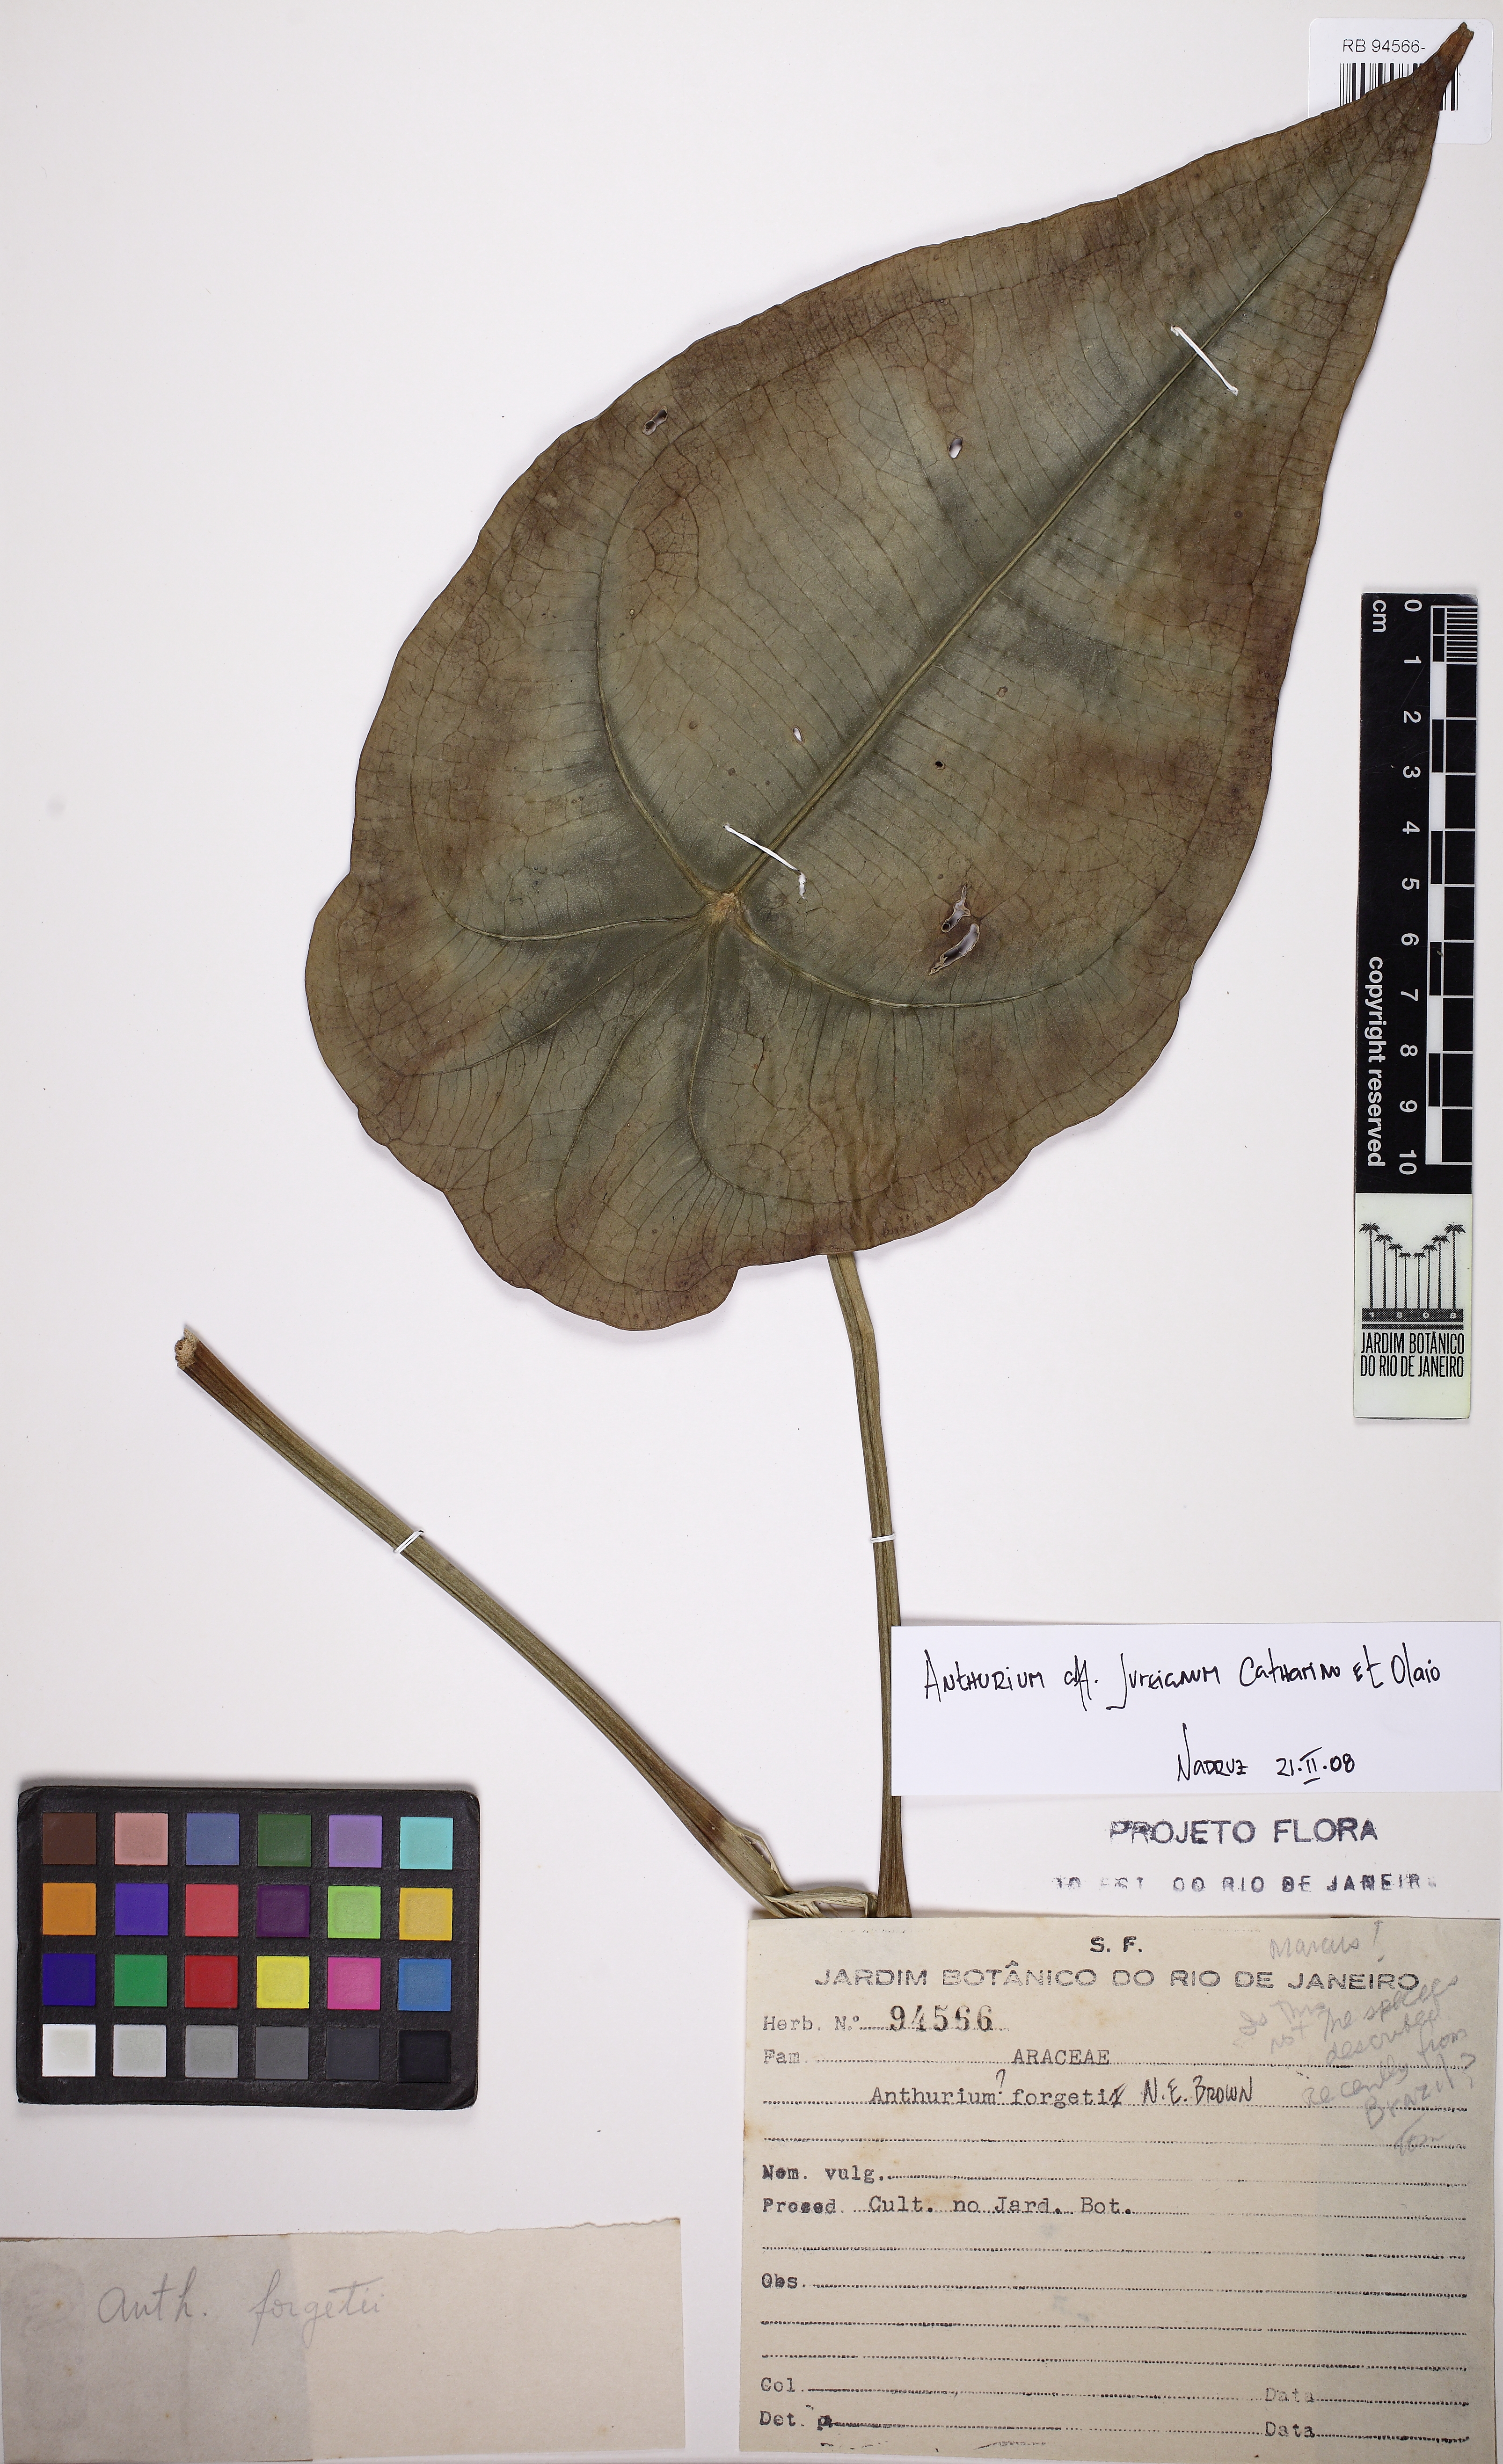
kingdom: Plantae
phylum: Tracheophyta
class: Liliopsida
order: Alismatales
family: Araceae
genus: Anthurium
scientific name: Anthurium jureianum
